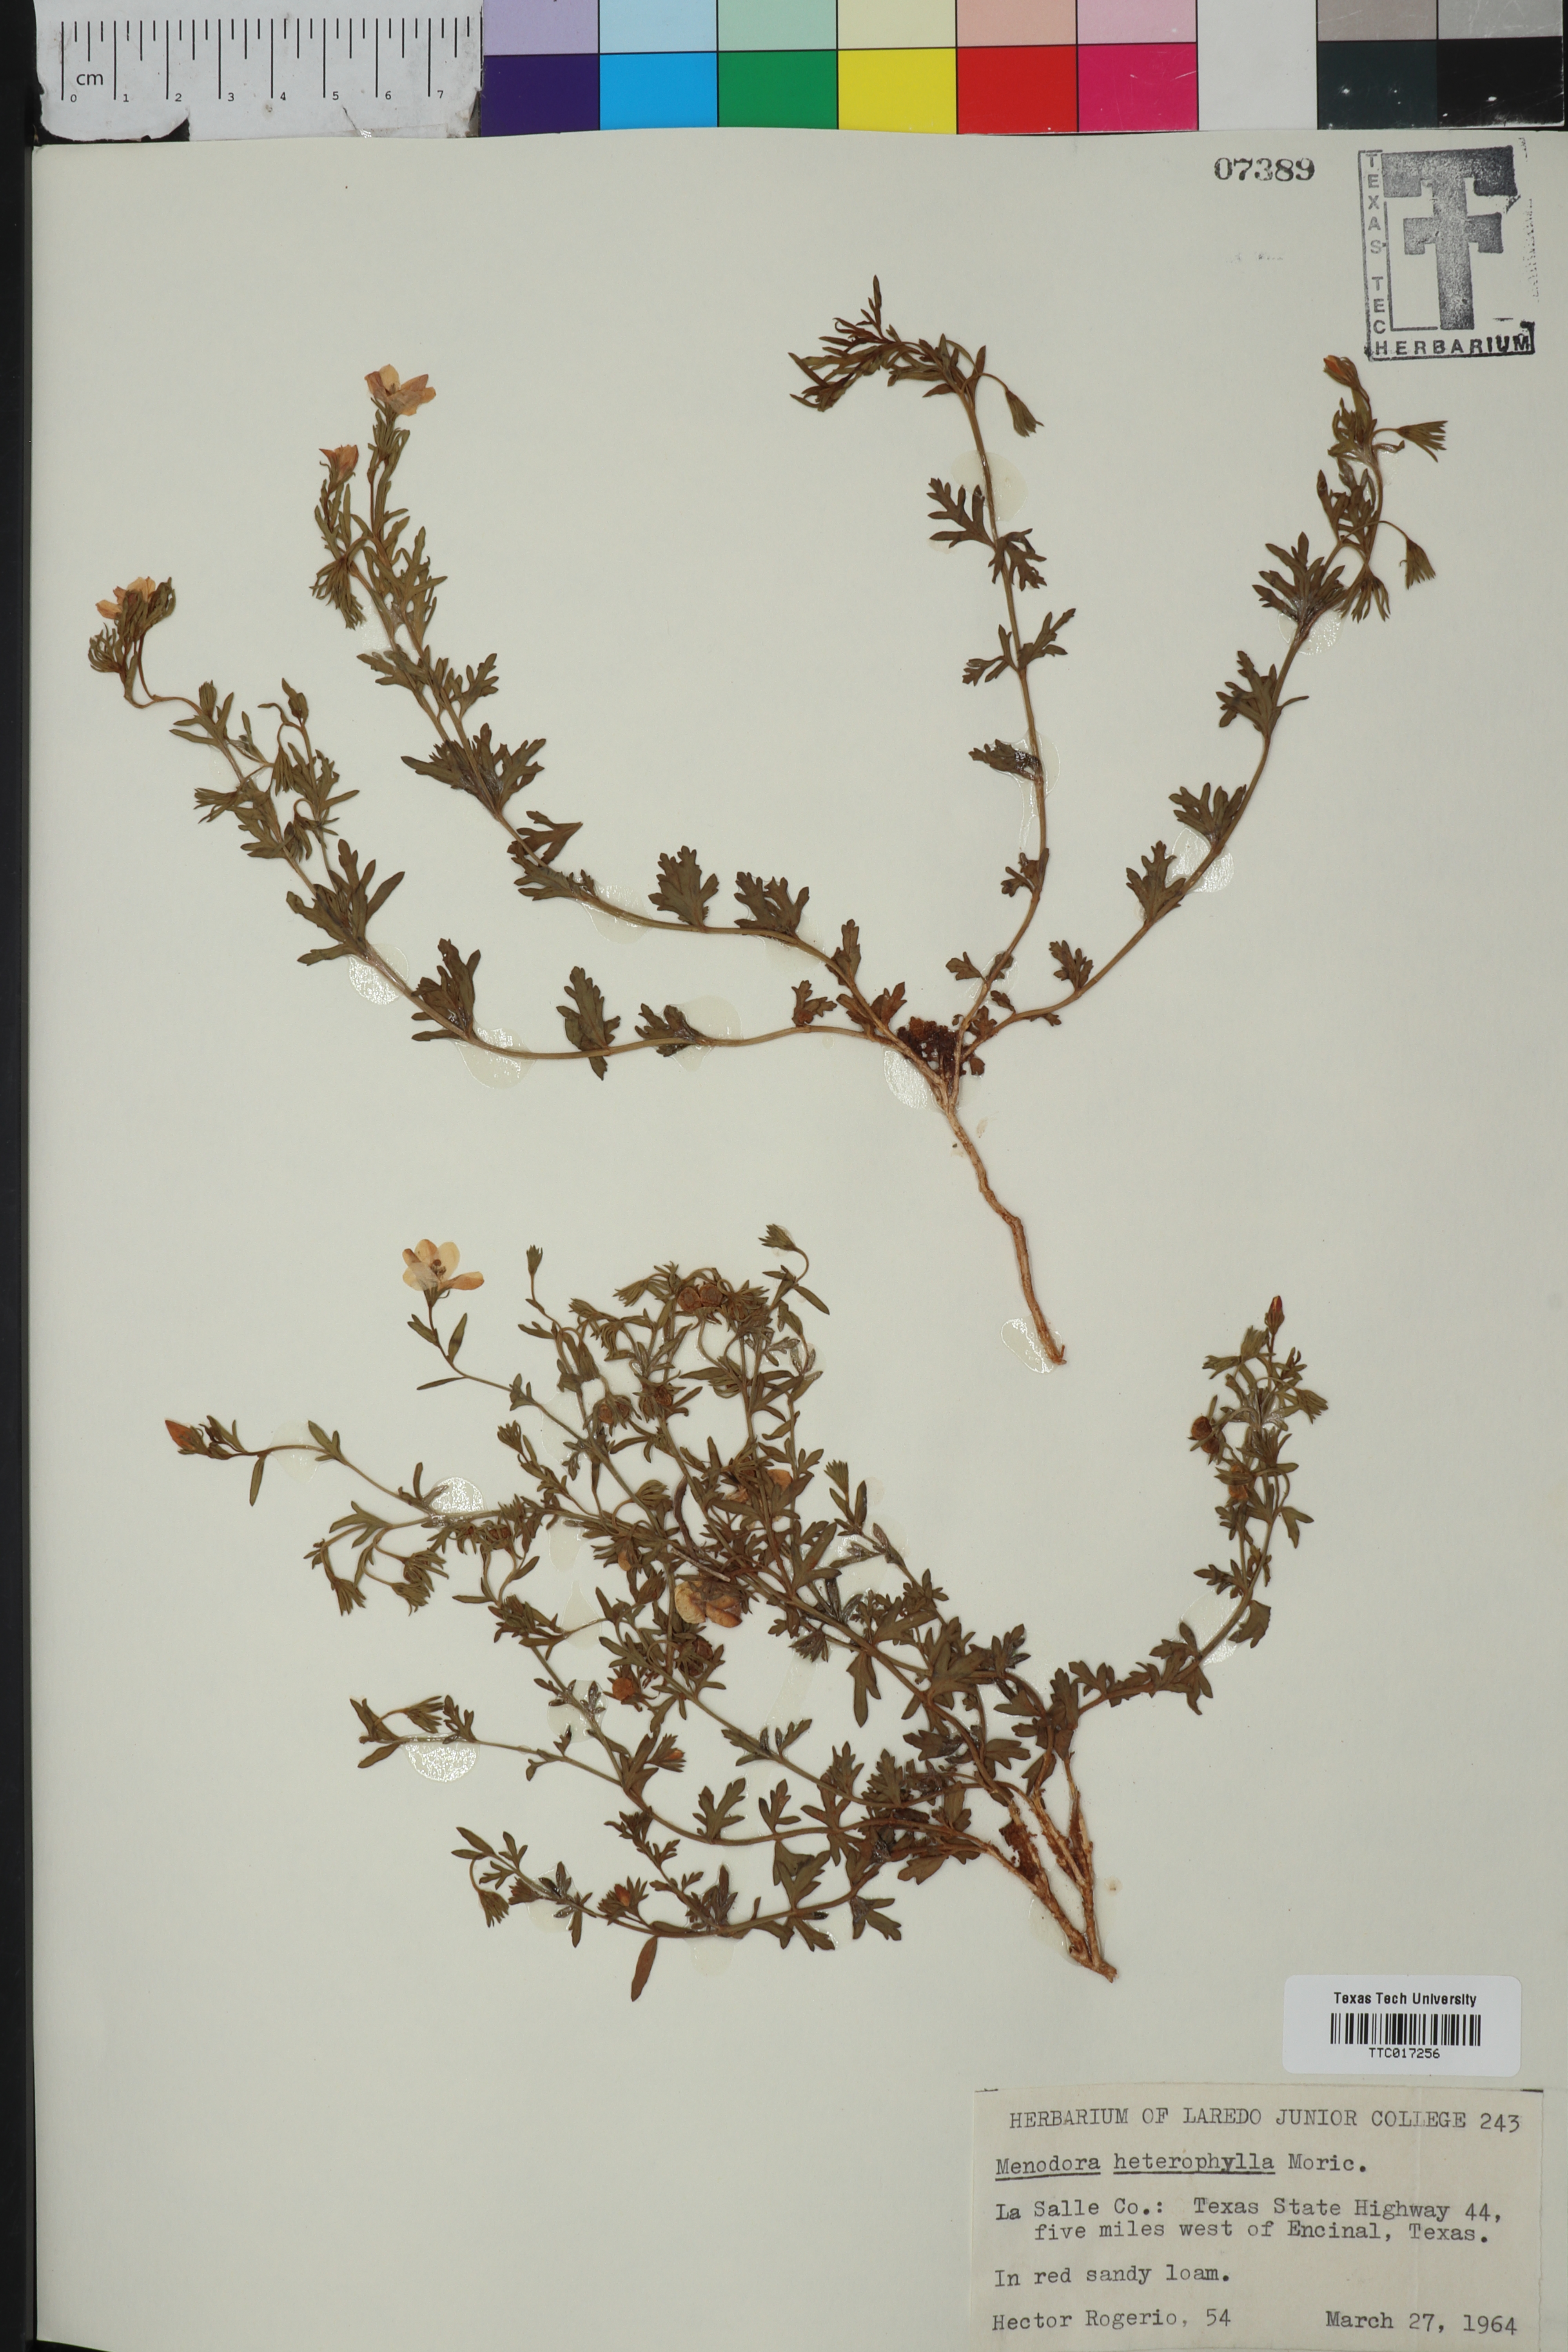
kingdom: Plantae
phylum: Tracheophyta
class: Magnoliopsida
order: Lamiales
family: Oleaceae
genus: Menodora
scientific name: Menodora heterophylla
